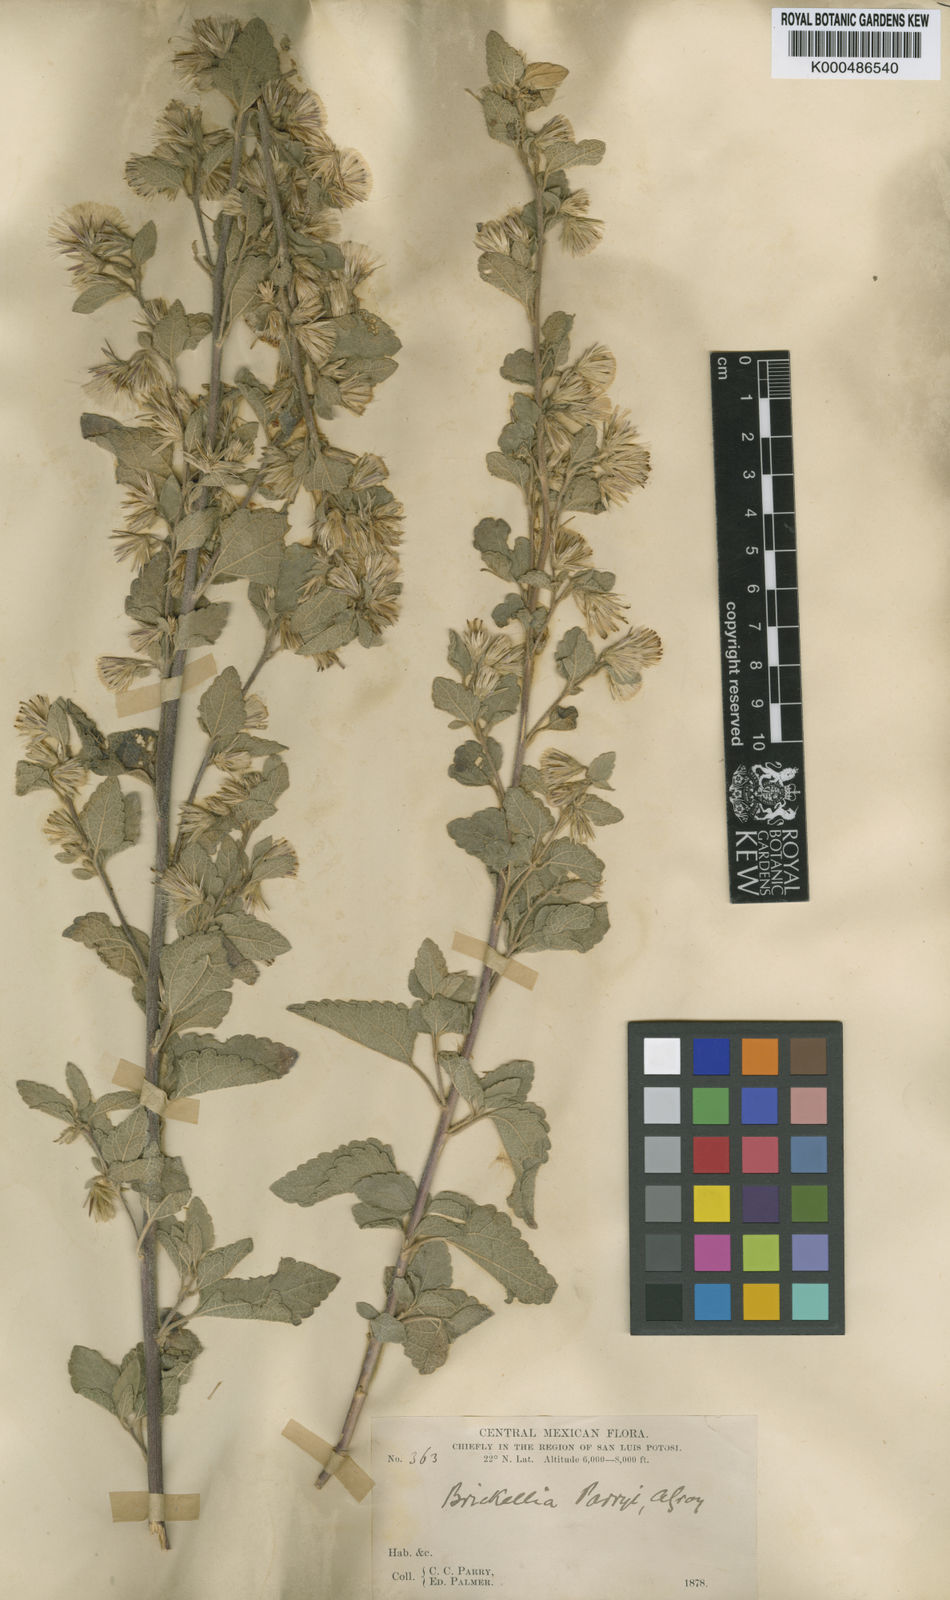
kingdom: Plantae
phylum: Tracheophyta
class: Magnoliopsida
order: Asterales
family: Asteraceae
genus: Brickellia
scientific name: Brickellia tomentella
